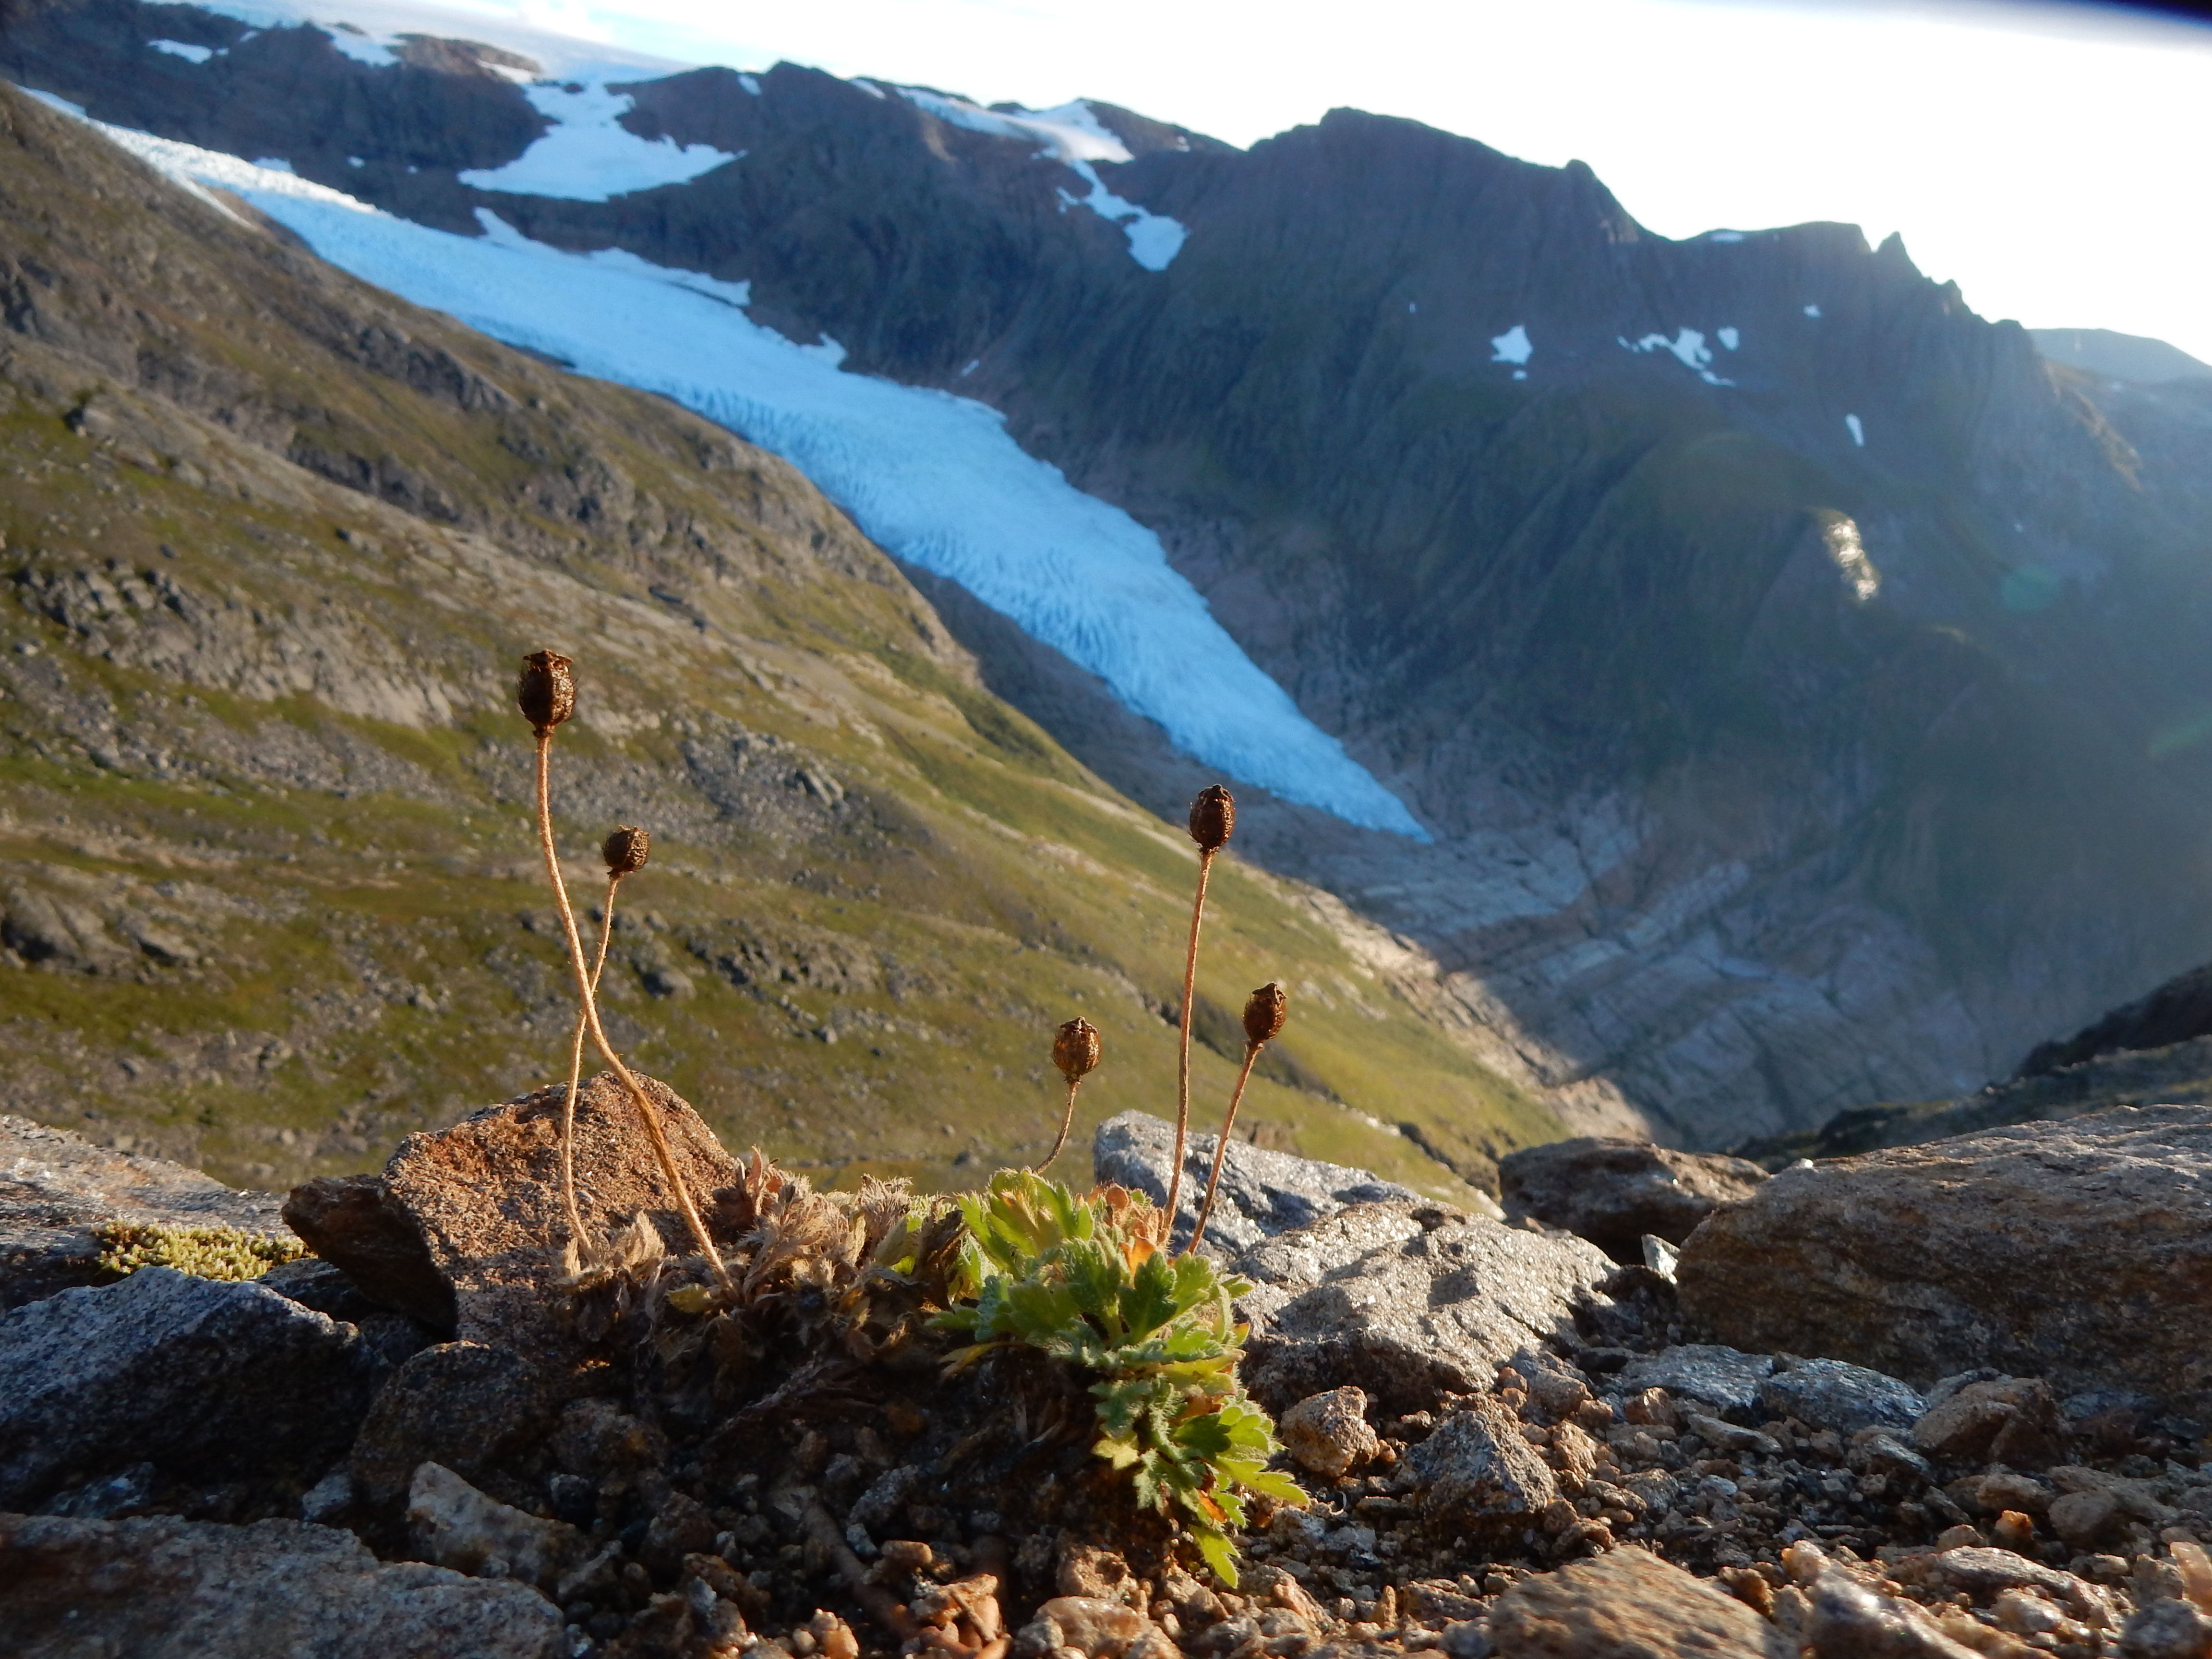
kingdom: Plantae
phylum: Tracheophyta
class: Magnoliopsida
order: Ranunculales
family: Papaveraceae
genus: Papaver
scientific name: Papaver radicatum
